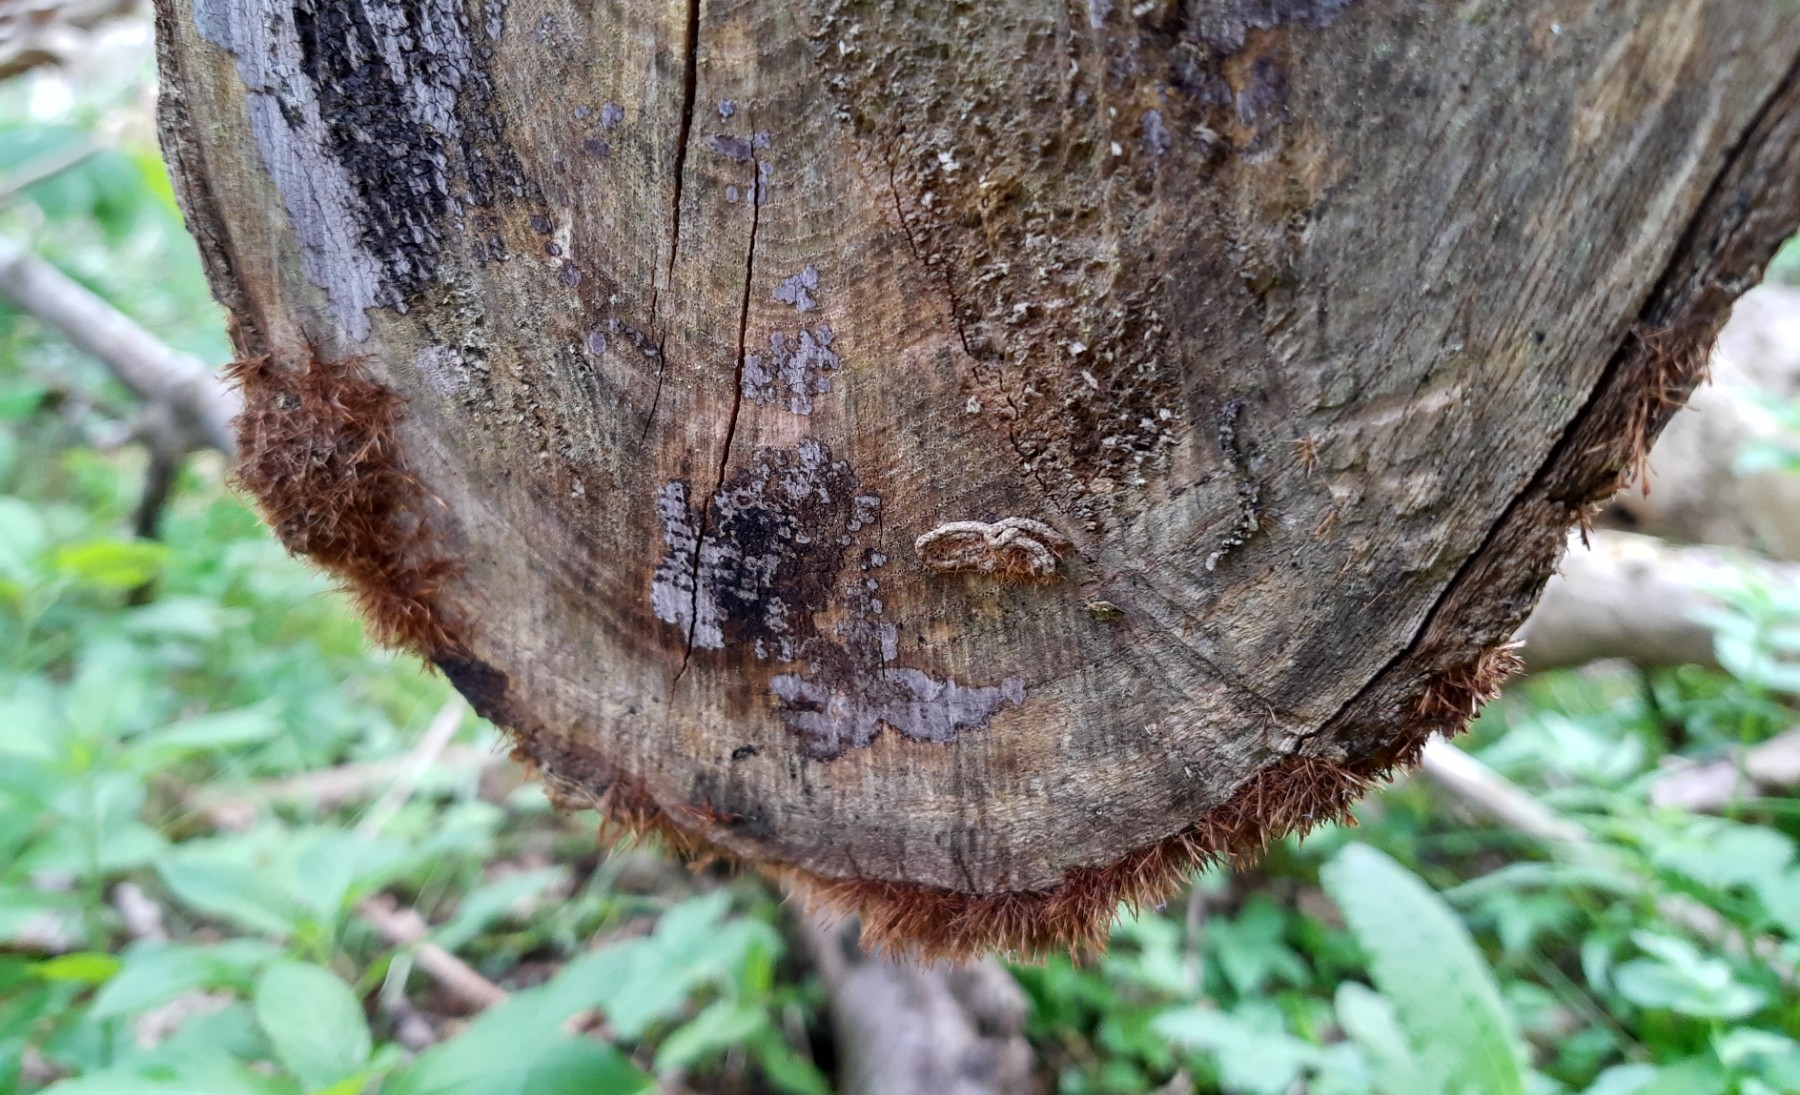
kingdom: Fungi
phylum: Basidiomycota
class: Agaricomycetes
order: Agaricales
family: Psathyrellaceae
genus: Ozonium
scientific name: Ozonium
